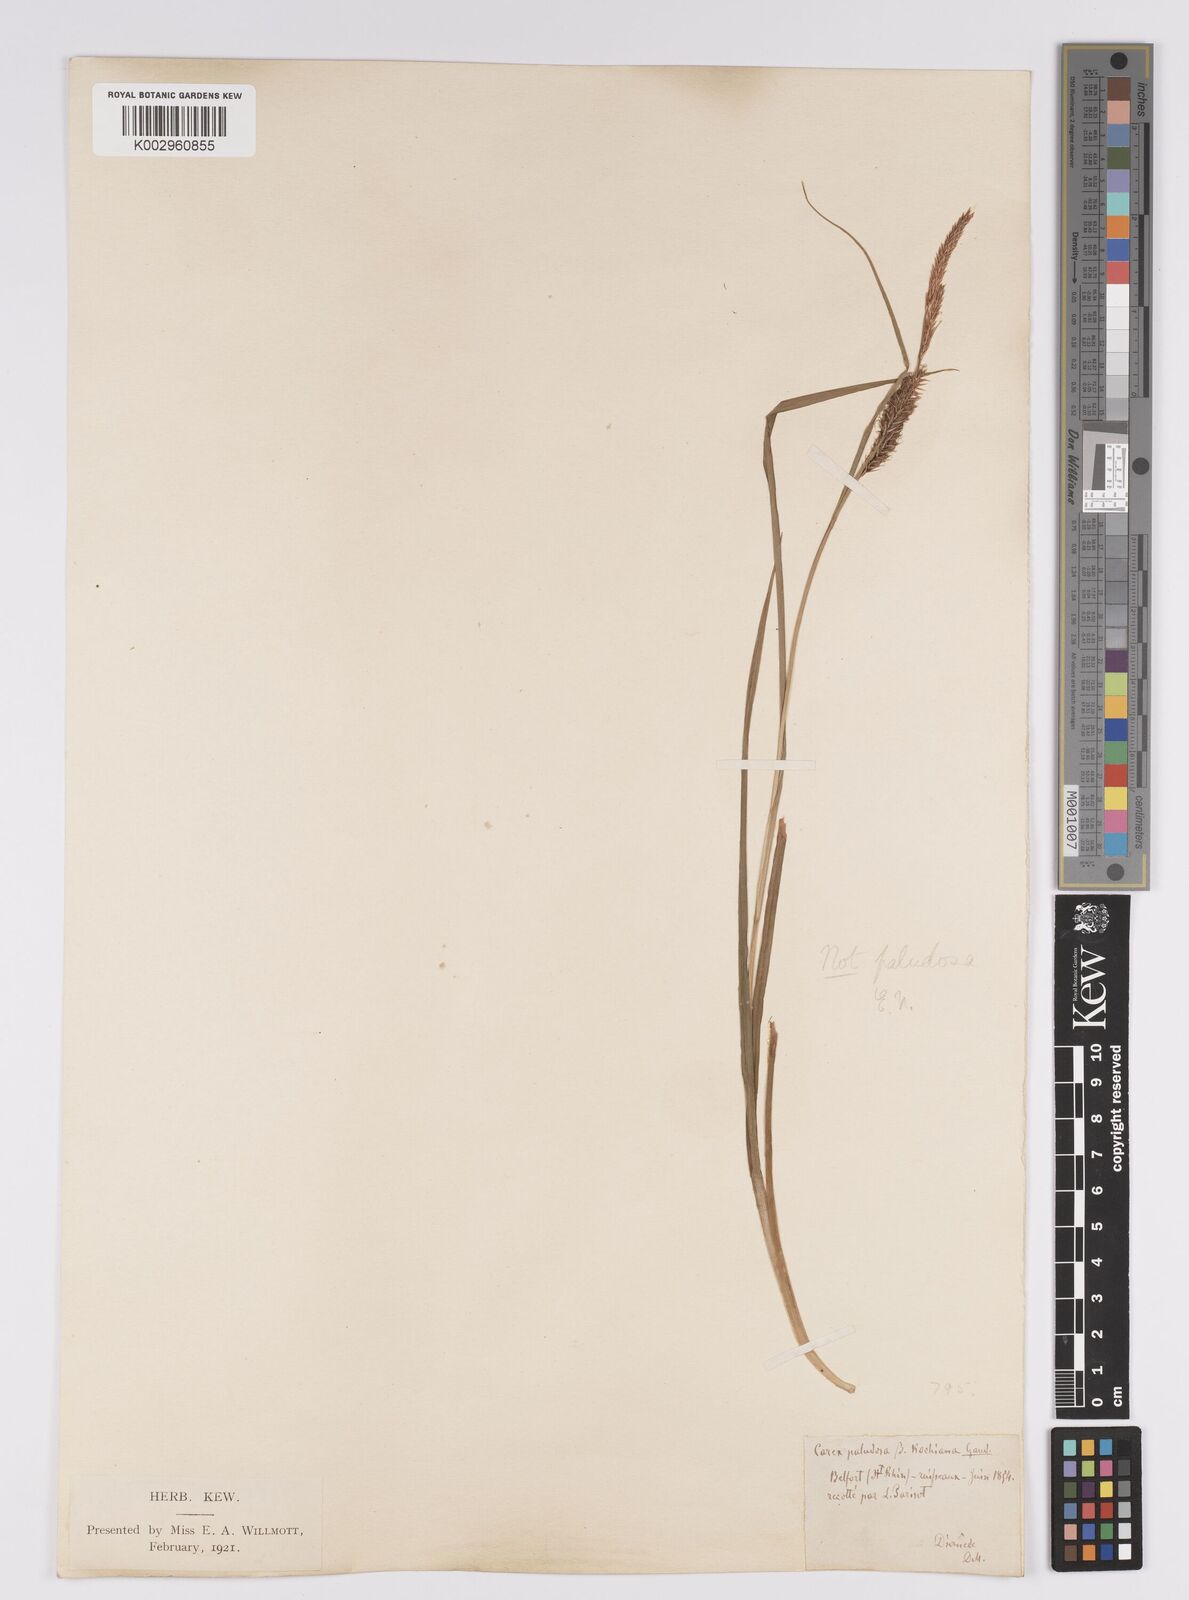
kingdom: Plantae
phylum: Tracheophyta
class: Liliopsida
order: Poales
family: Cyperaceae
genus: Carex
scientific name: Carex acutiformis
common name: Lesser pond-sedge
